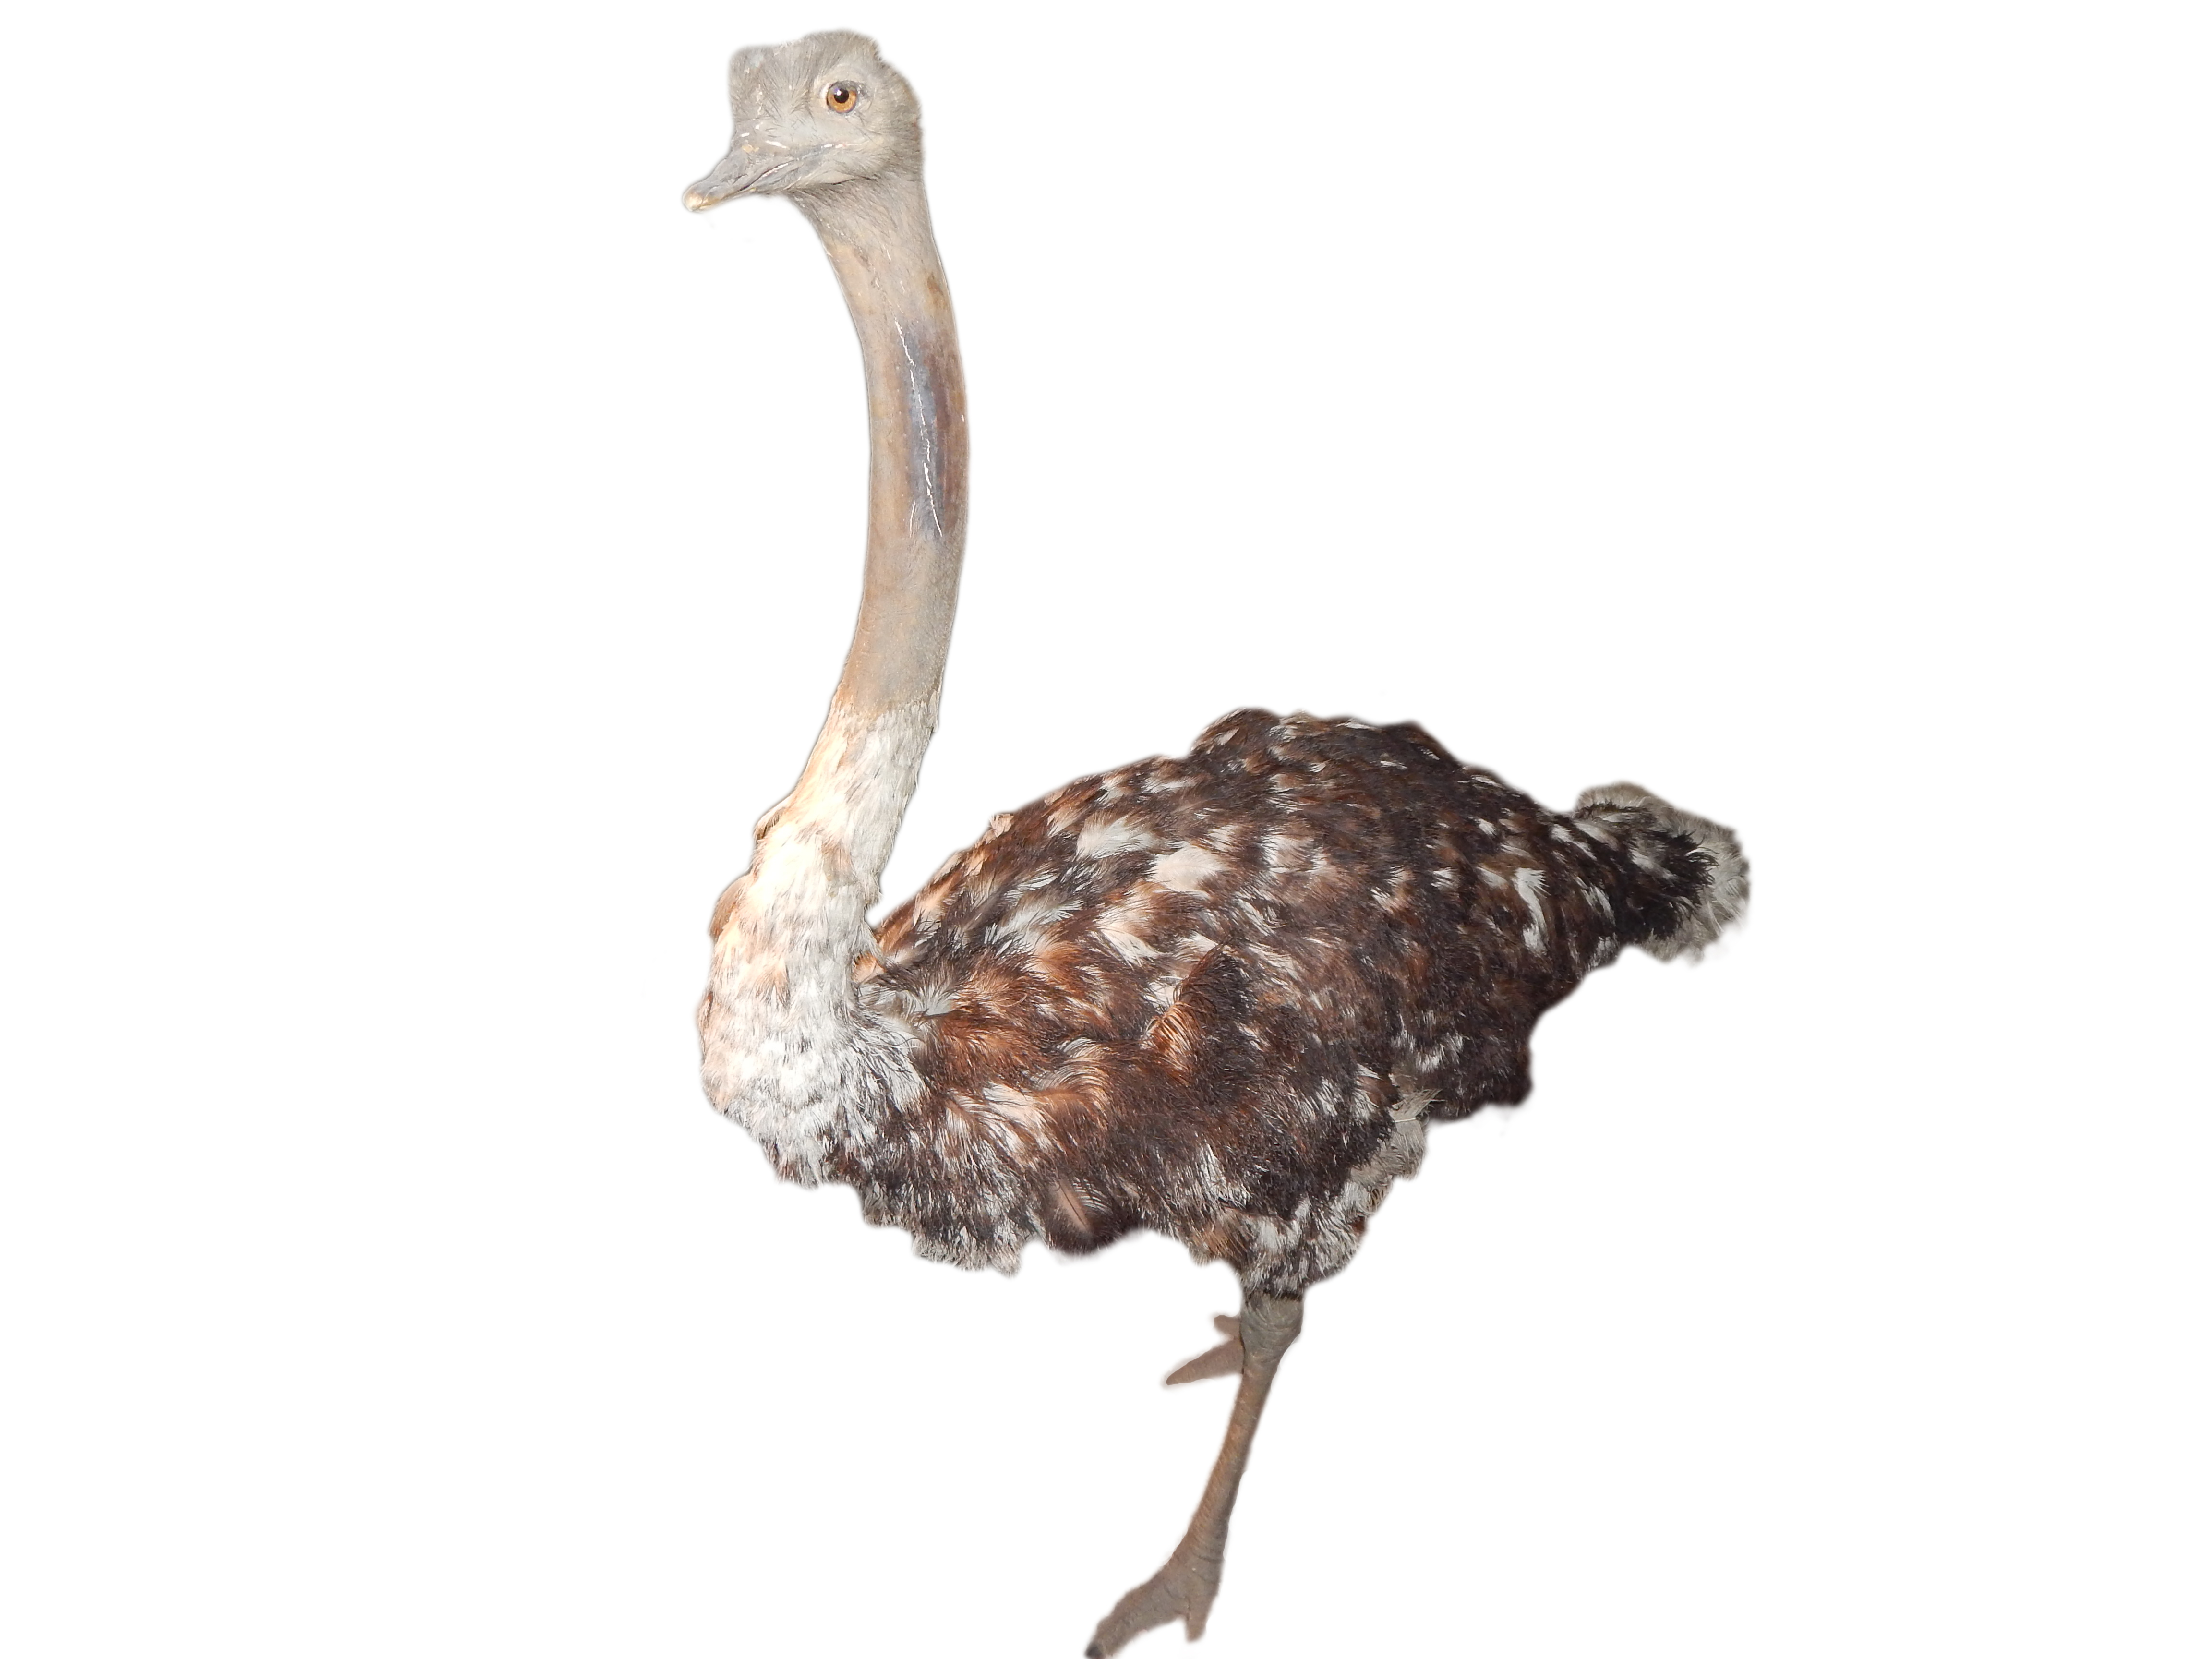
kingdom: Animalia
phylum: Chordata
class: Aves
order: Struthioniformes
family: Struthionidae
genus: Struthio
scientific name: Struthio camelus
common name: Common ostrich
